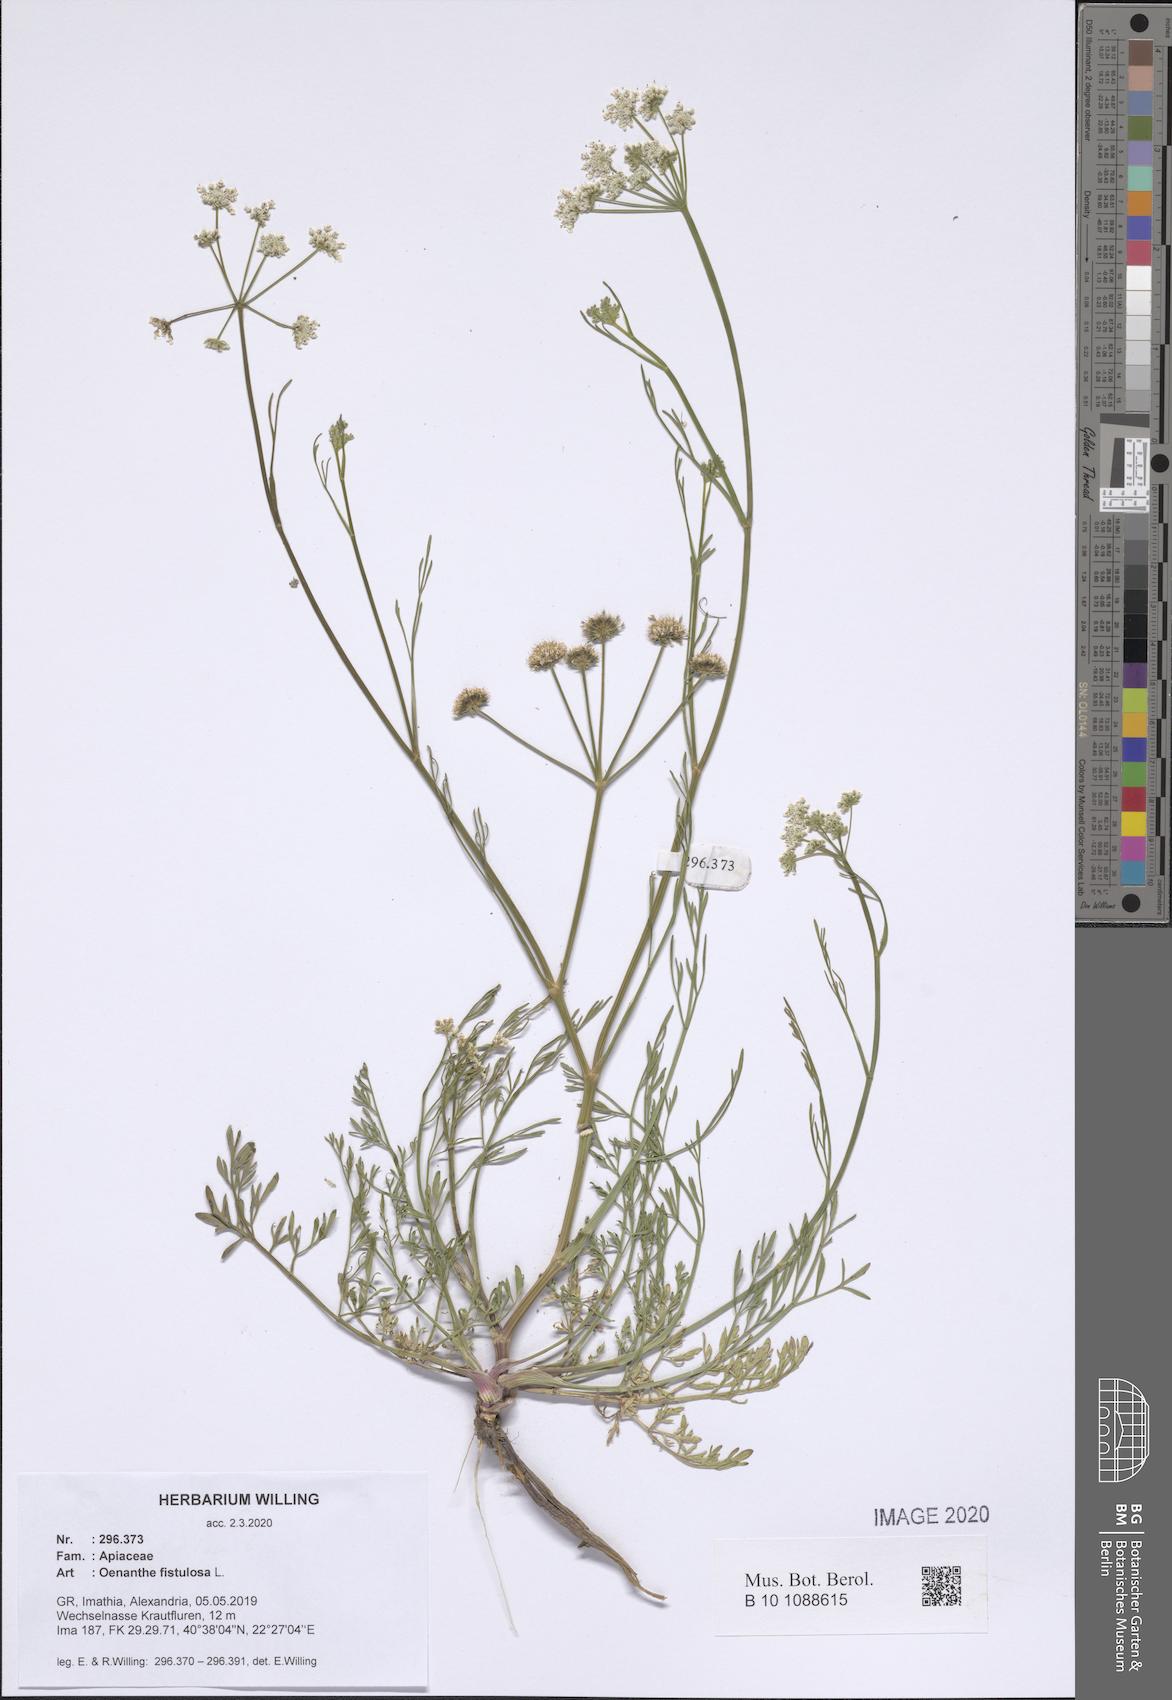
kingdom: Plantae
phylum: Tracheophyta
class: Magnoliopsida
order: Apiales
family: Apiaceae
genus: Oenanthe
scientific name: Oenanthe fistulosa
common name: Tubular water-dropwort
